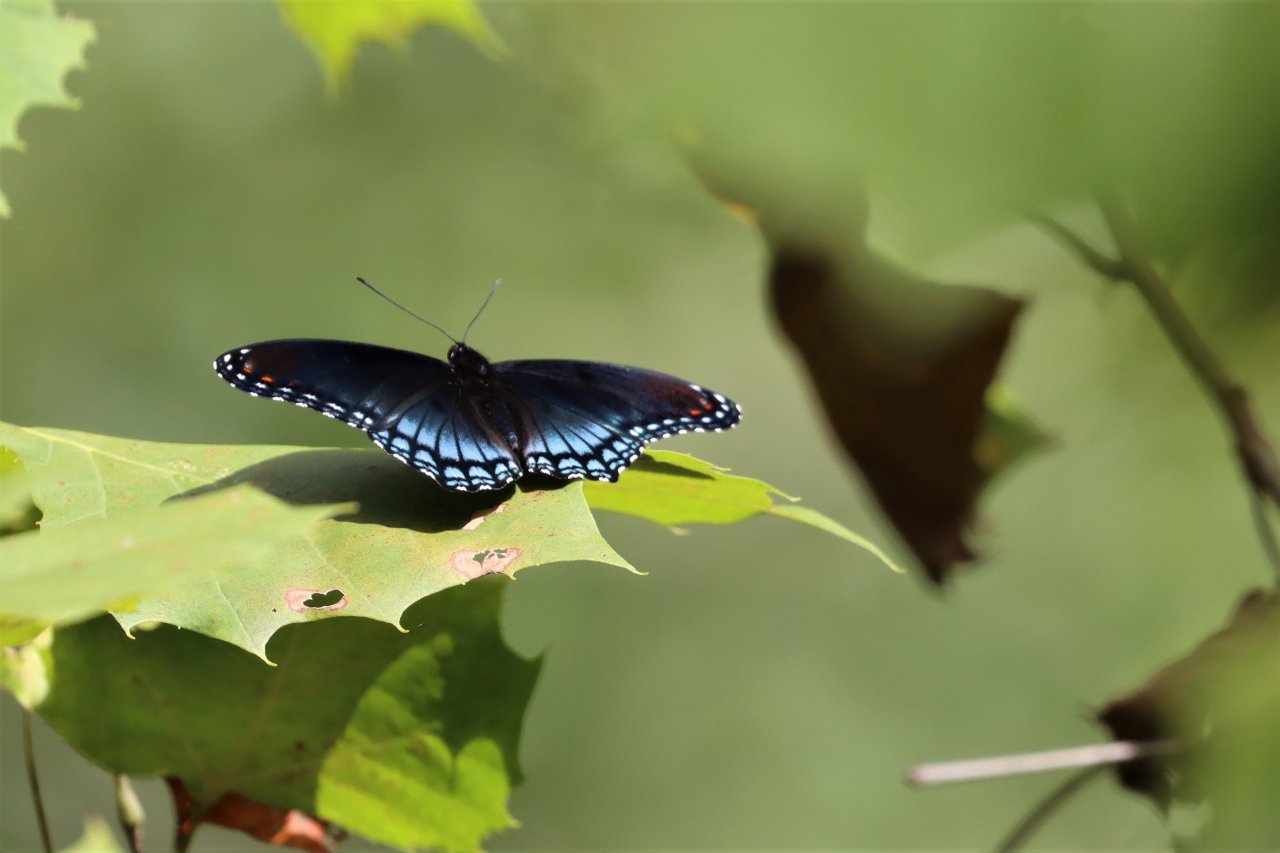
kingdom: Animalia
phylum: Arthropoda
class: Insecta
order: Lepidoptera
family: Nymphalidae
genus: Limenitis
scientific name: Limenitis arthemis
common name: Red-spotted Admiral
